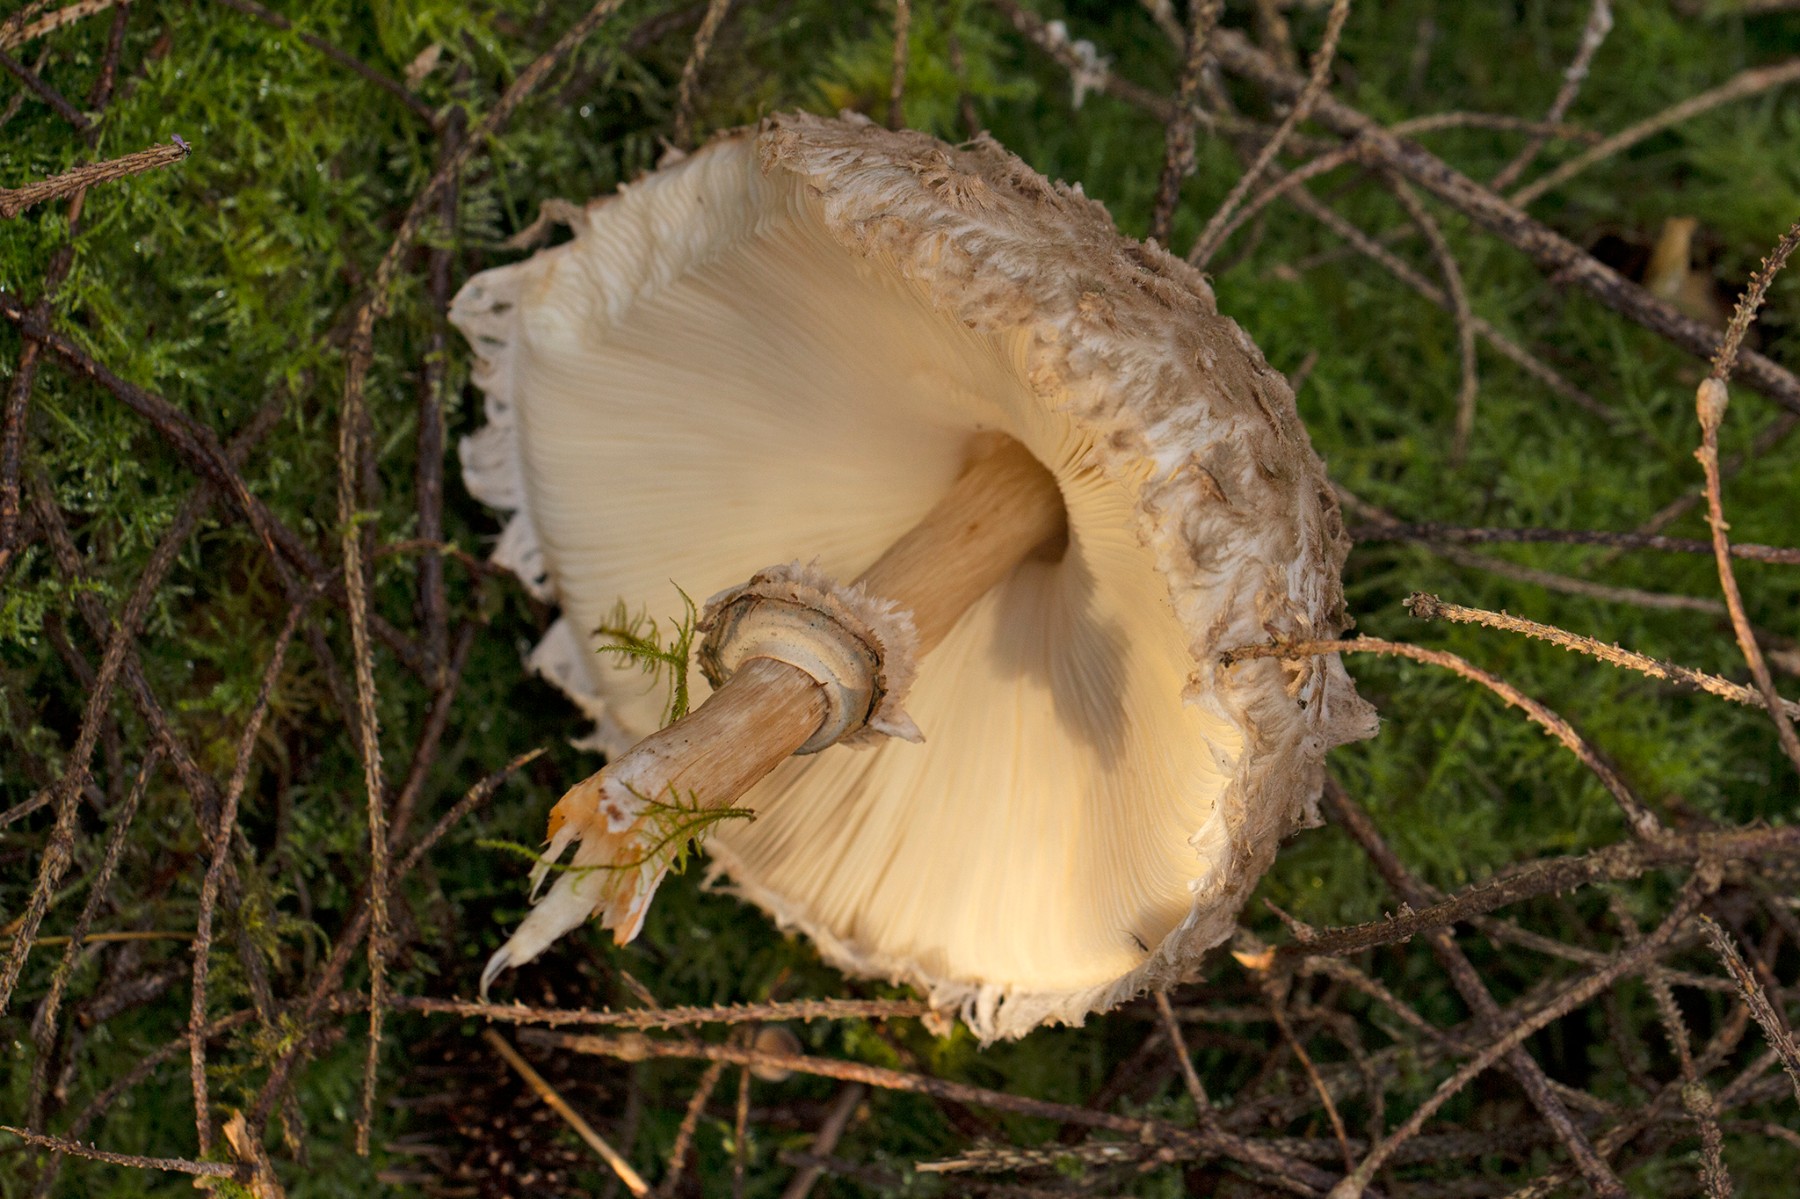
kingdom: Fungi
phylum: Basidiomycota
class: Agaricomycetes
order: Agaricales
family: Agaricaceae
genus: Chlorophyllum
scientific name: Chlorophyllum olivieri
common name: almindelig rabarberhat
